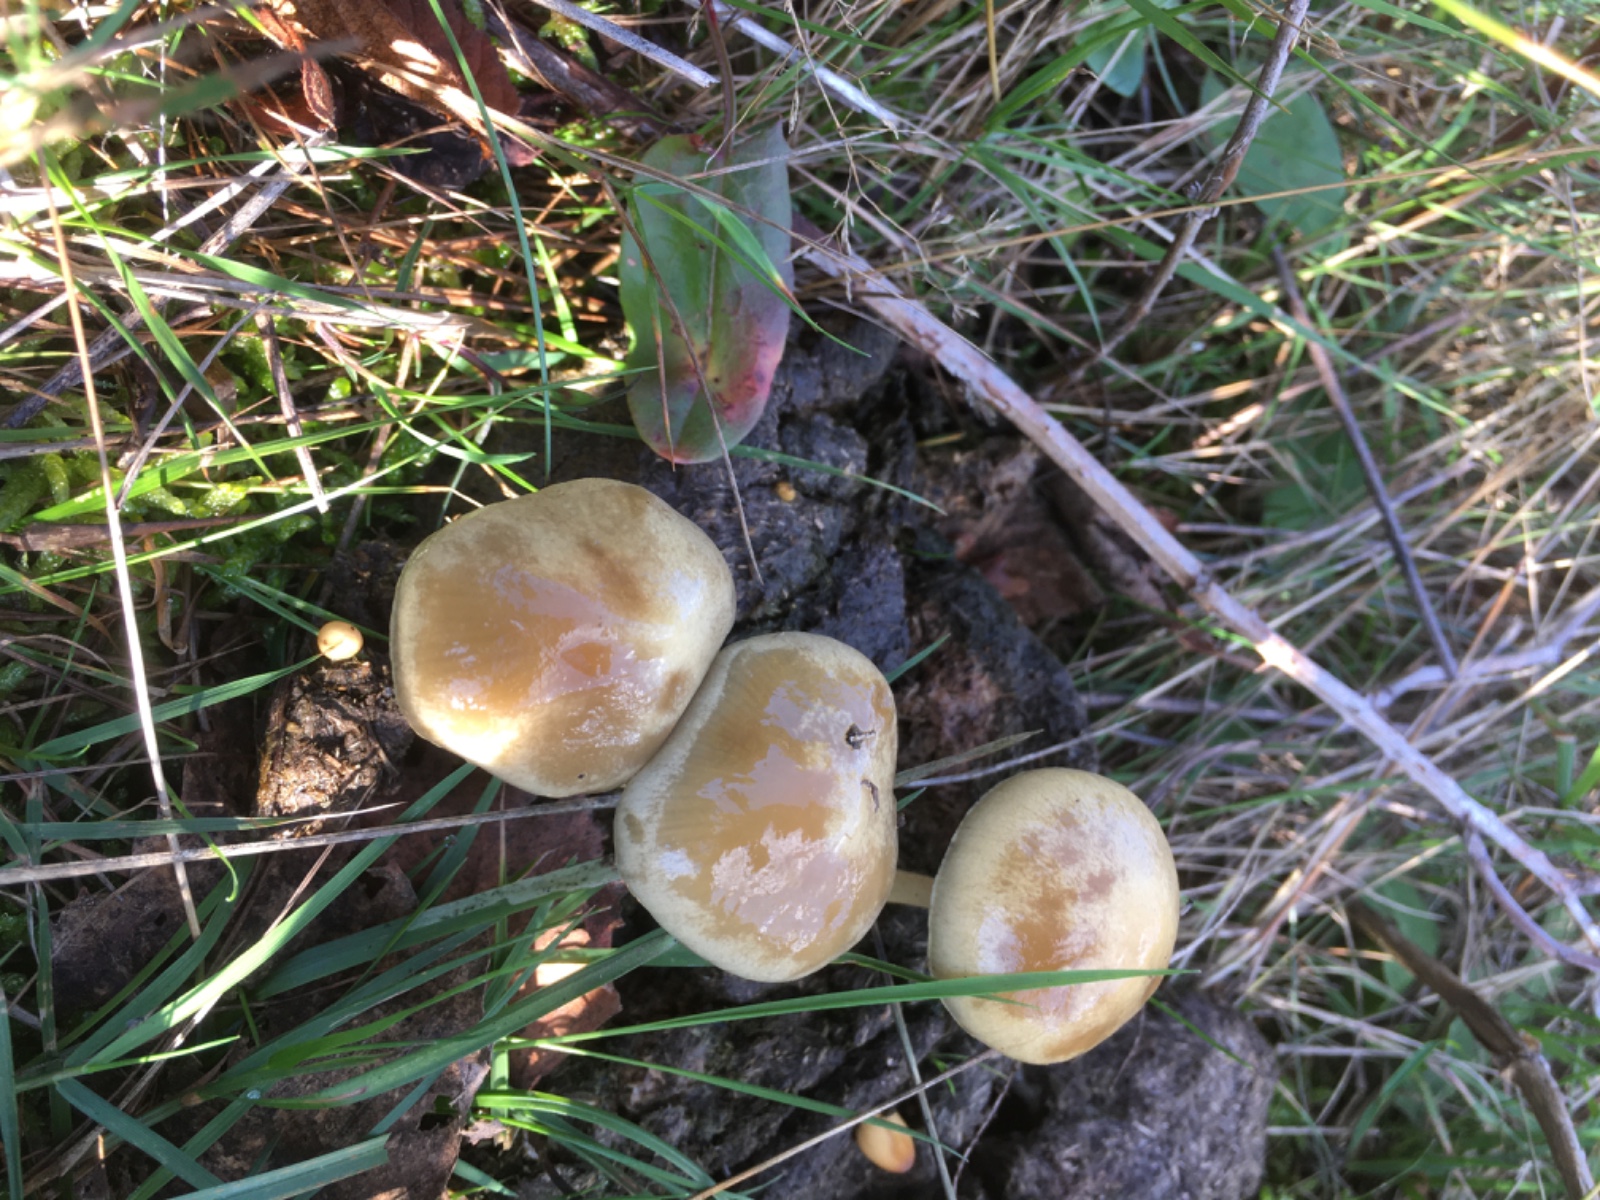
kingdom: Fungi
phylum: Basidiomycota
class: Agaricomycetes
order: Agaricales
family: Strophariaceae
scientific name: Strophariaceae
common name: bredbladfamilien
